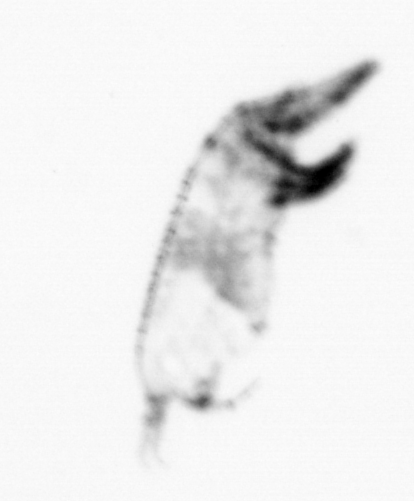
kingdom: Animalia
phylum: Arthropoda
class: Copepoda
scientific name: Copepoda
